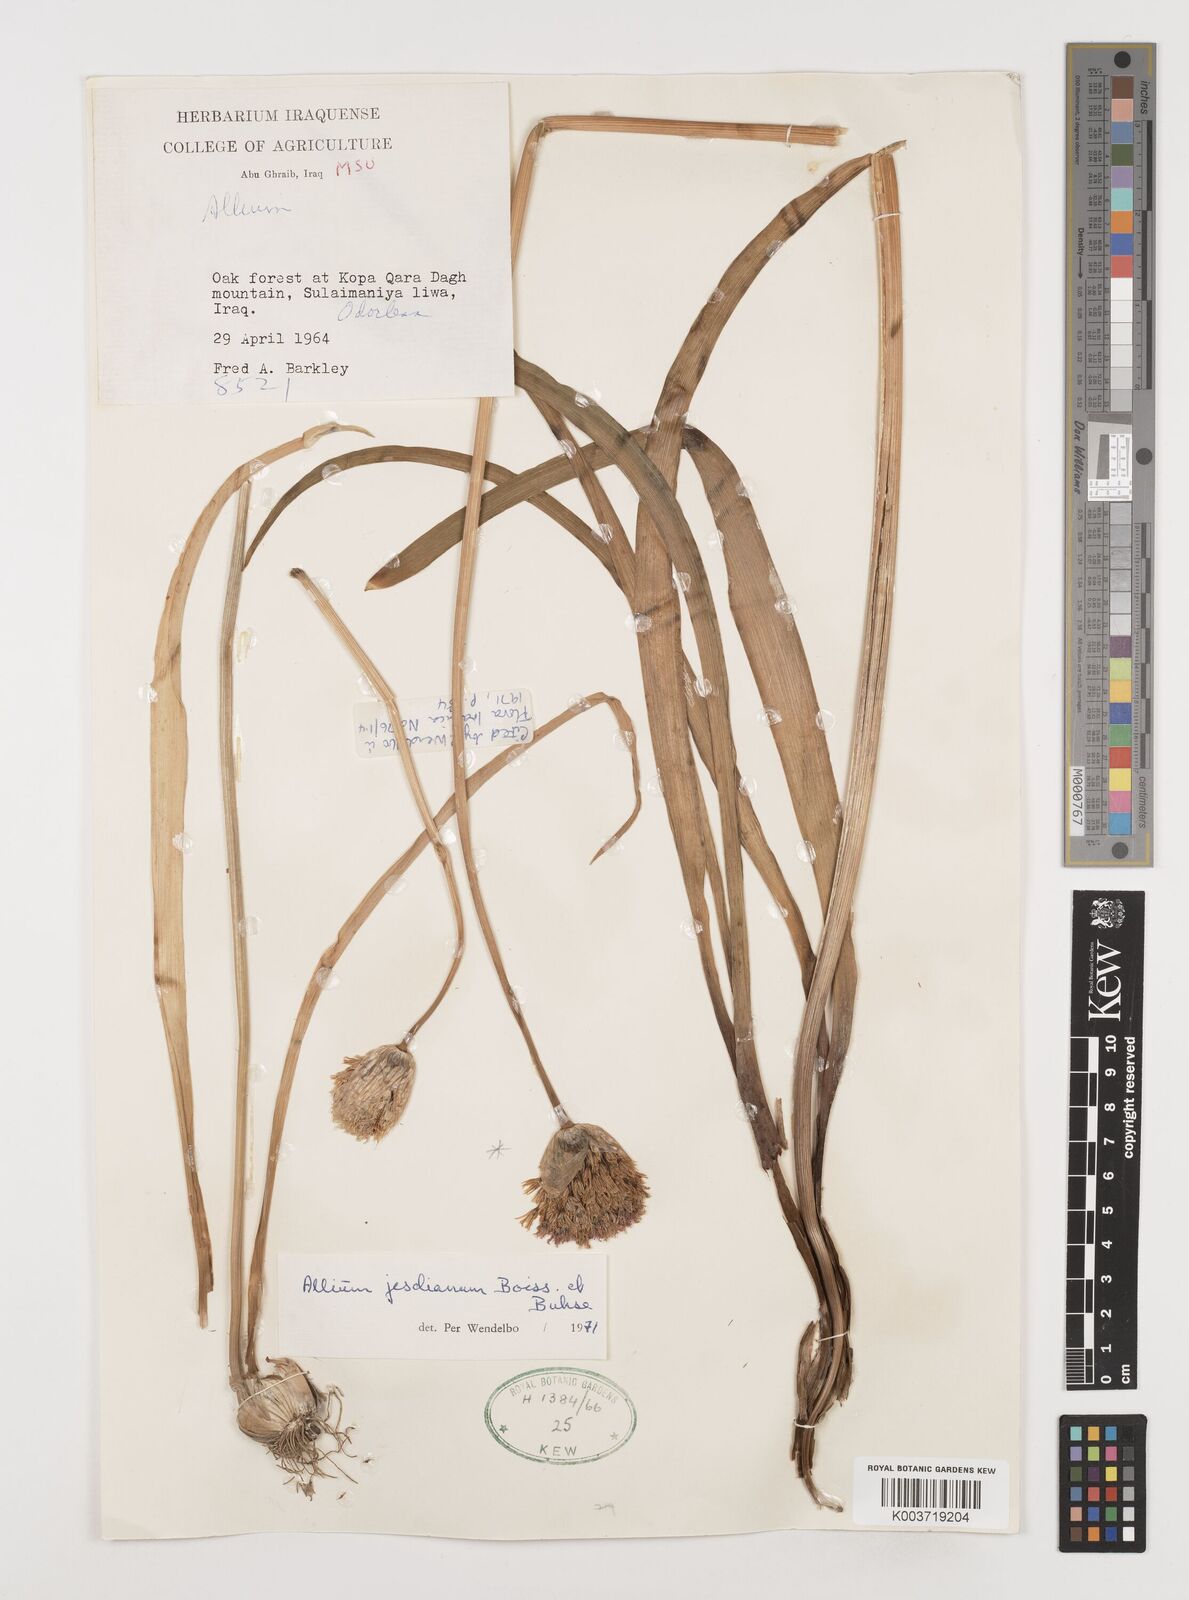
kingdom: Plantae
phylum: Tracheophyta
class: Liliopsida
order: Asparagales
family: Amaryllidaceae
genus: Allium
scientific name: Allium jesdianum
